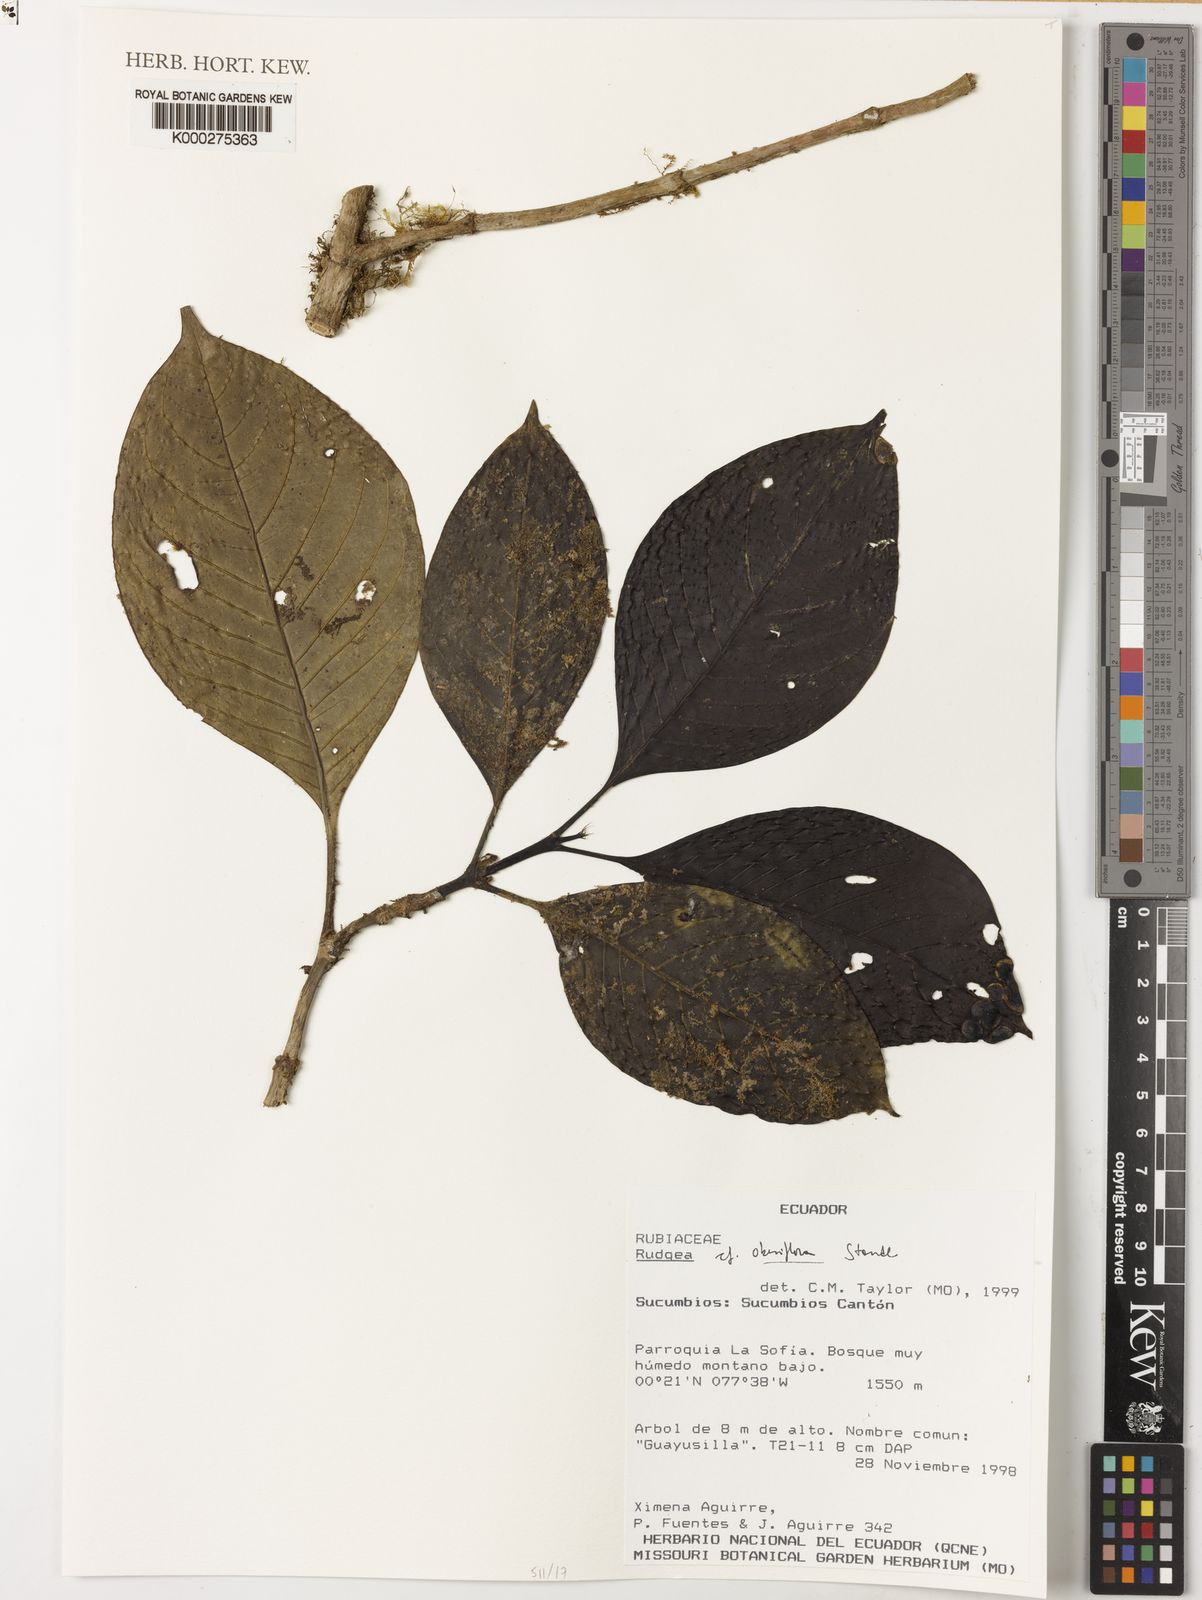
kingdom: Plantae
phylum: Tracheophyta
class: Magnoliopsida
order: Gentianales
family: Rubiaceae
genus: Rudgea
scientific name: Rudgea obesiflora
